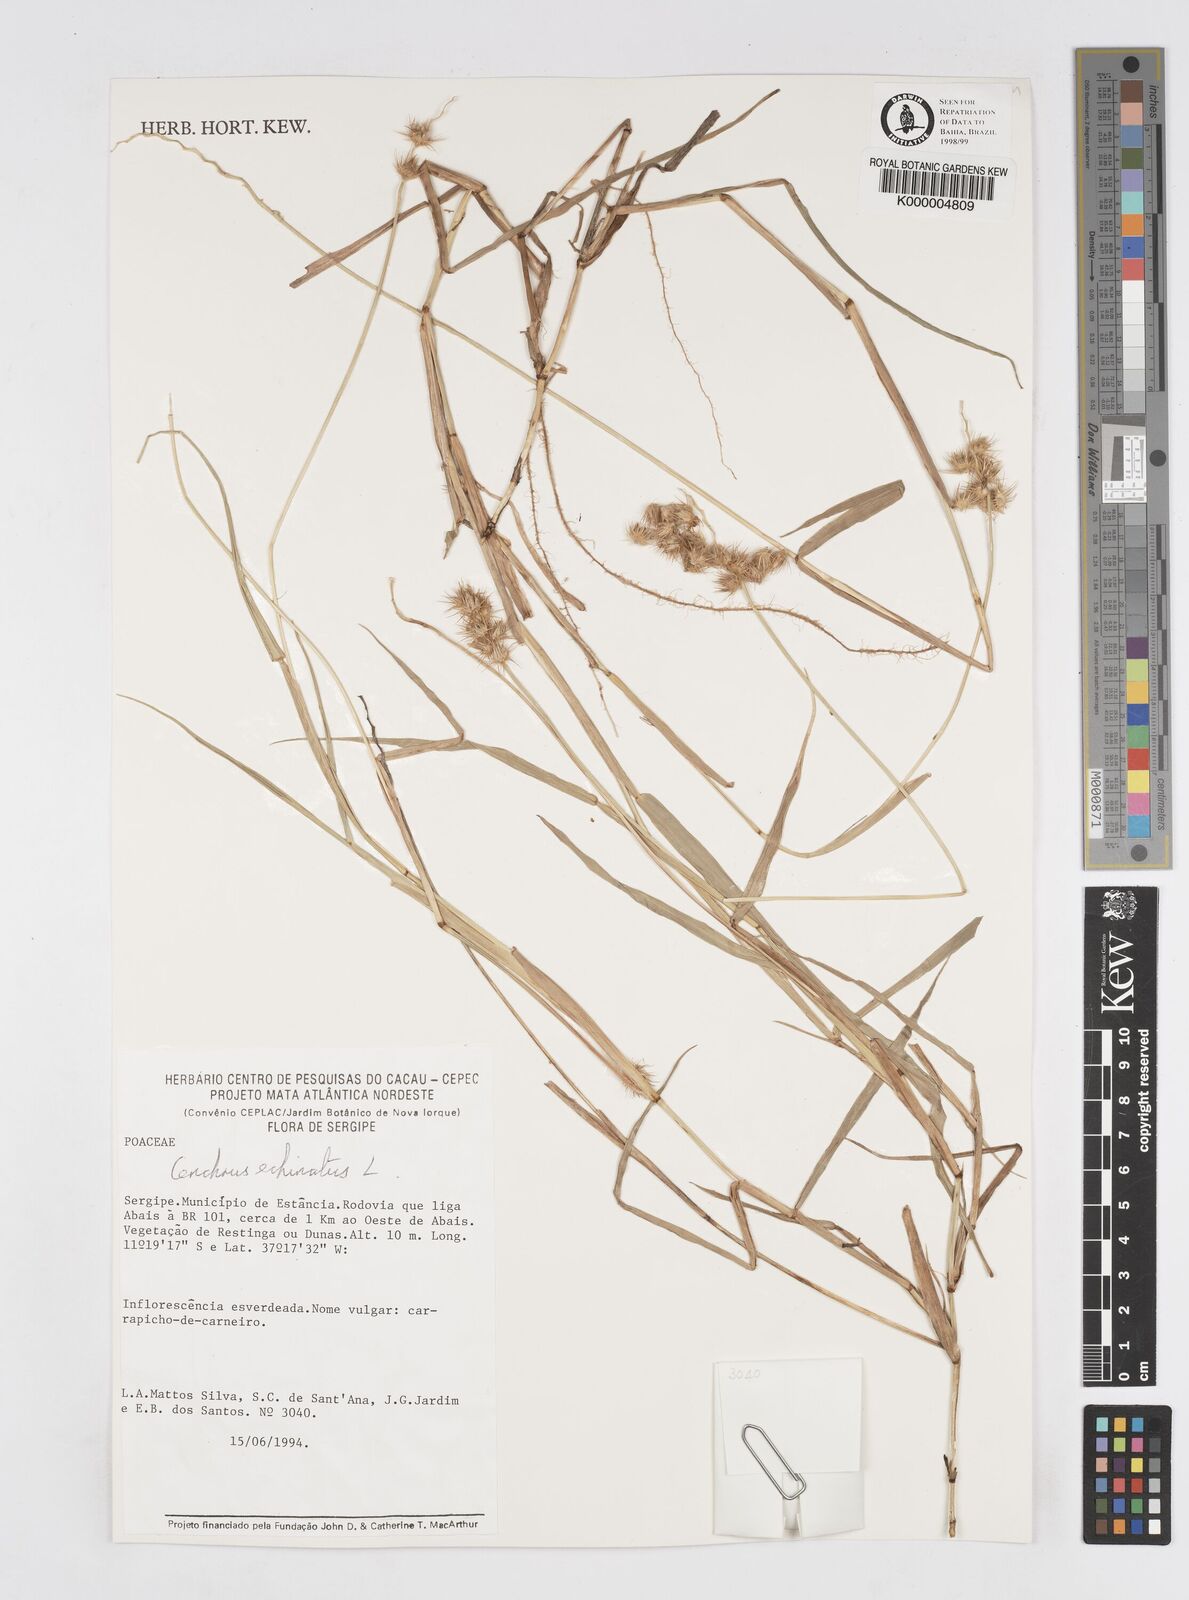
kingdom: Plantae
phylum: Tracheophyta
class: Liliopsida
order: Poales
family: Poaceae
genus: Cenchrus
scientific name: Cenchrus echinatus
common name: Southern sandbur
